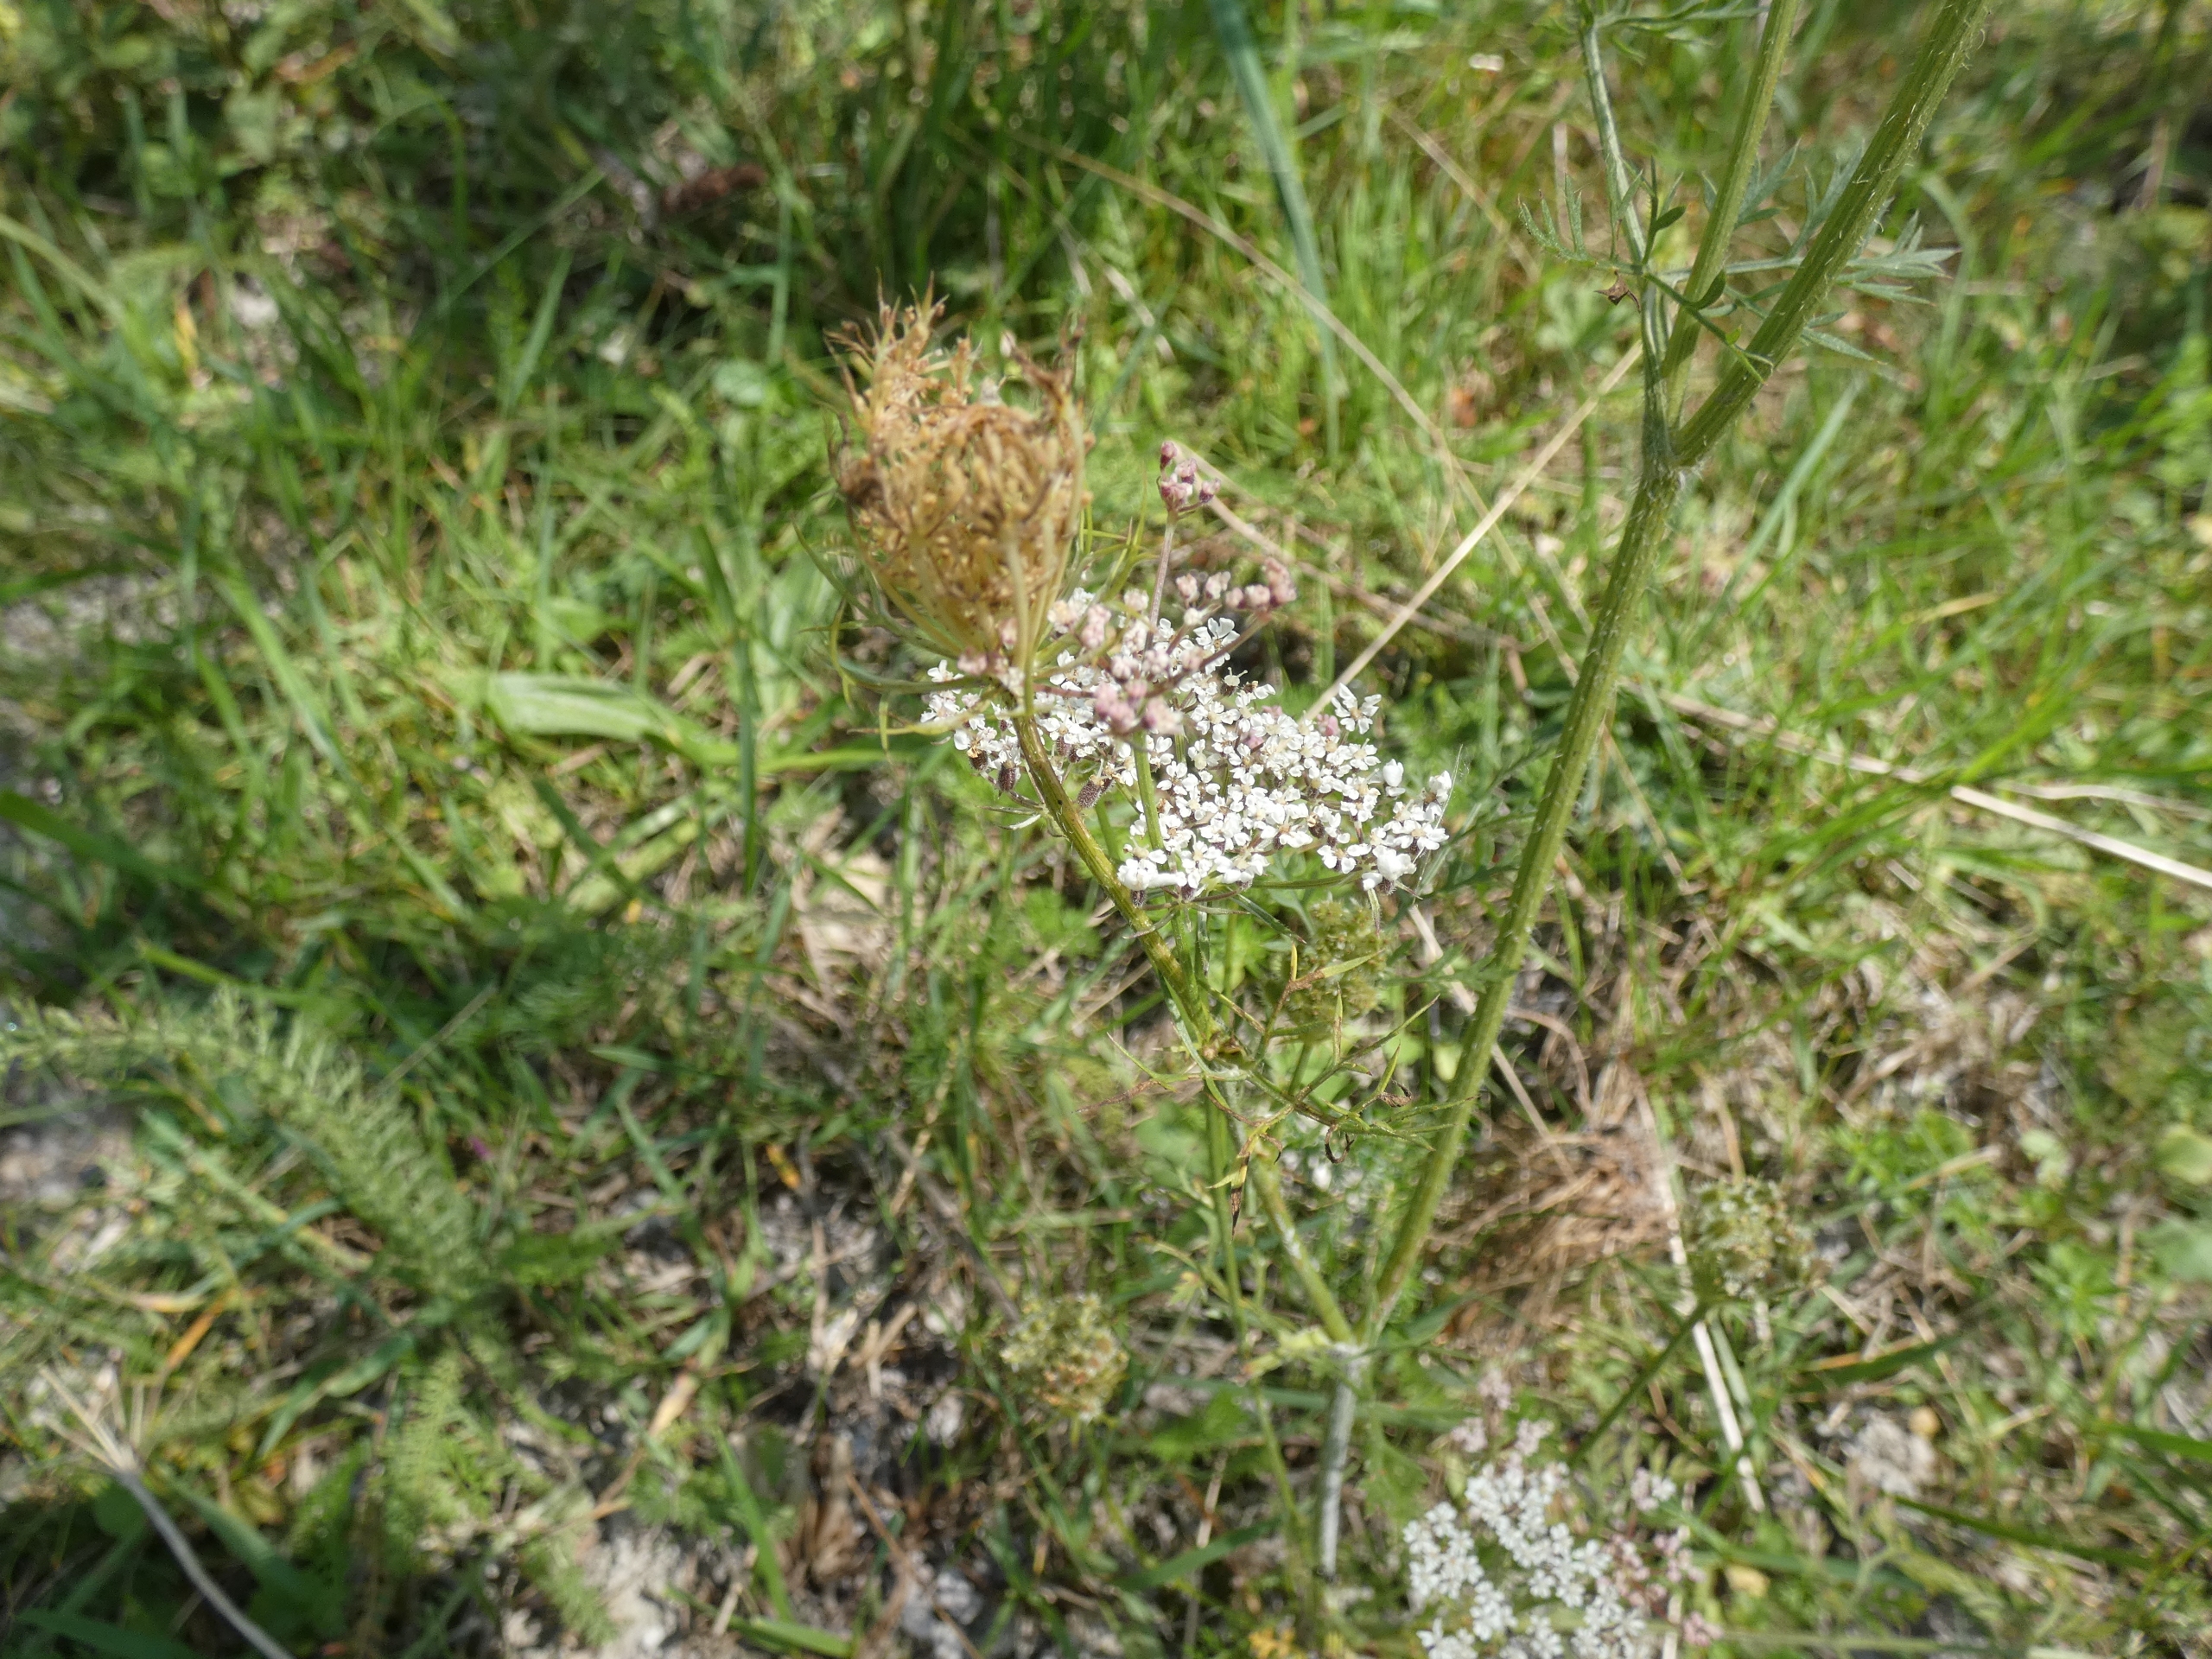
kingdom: Plantae
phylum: Tracheophyta
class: Magnoliopsida
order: Apiales
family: Apiaceae
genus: Daucus
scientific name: Daucus carota
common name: Vild gulerod
